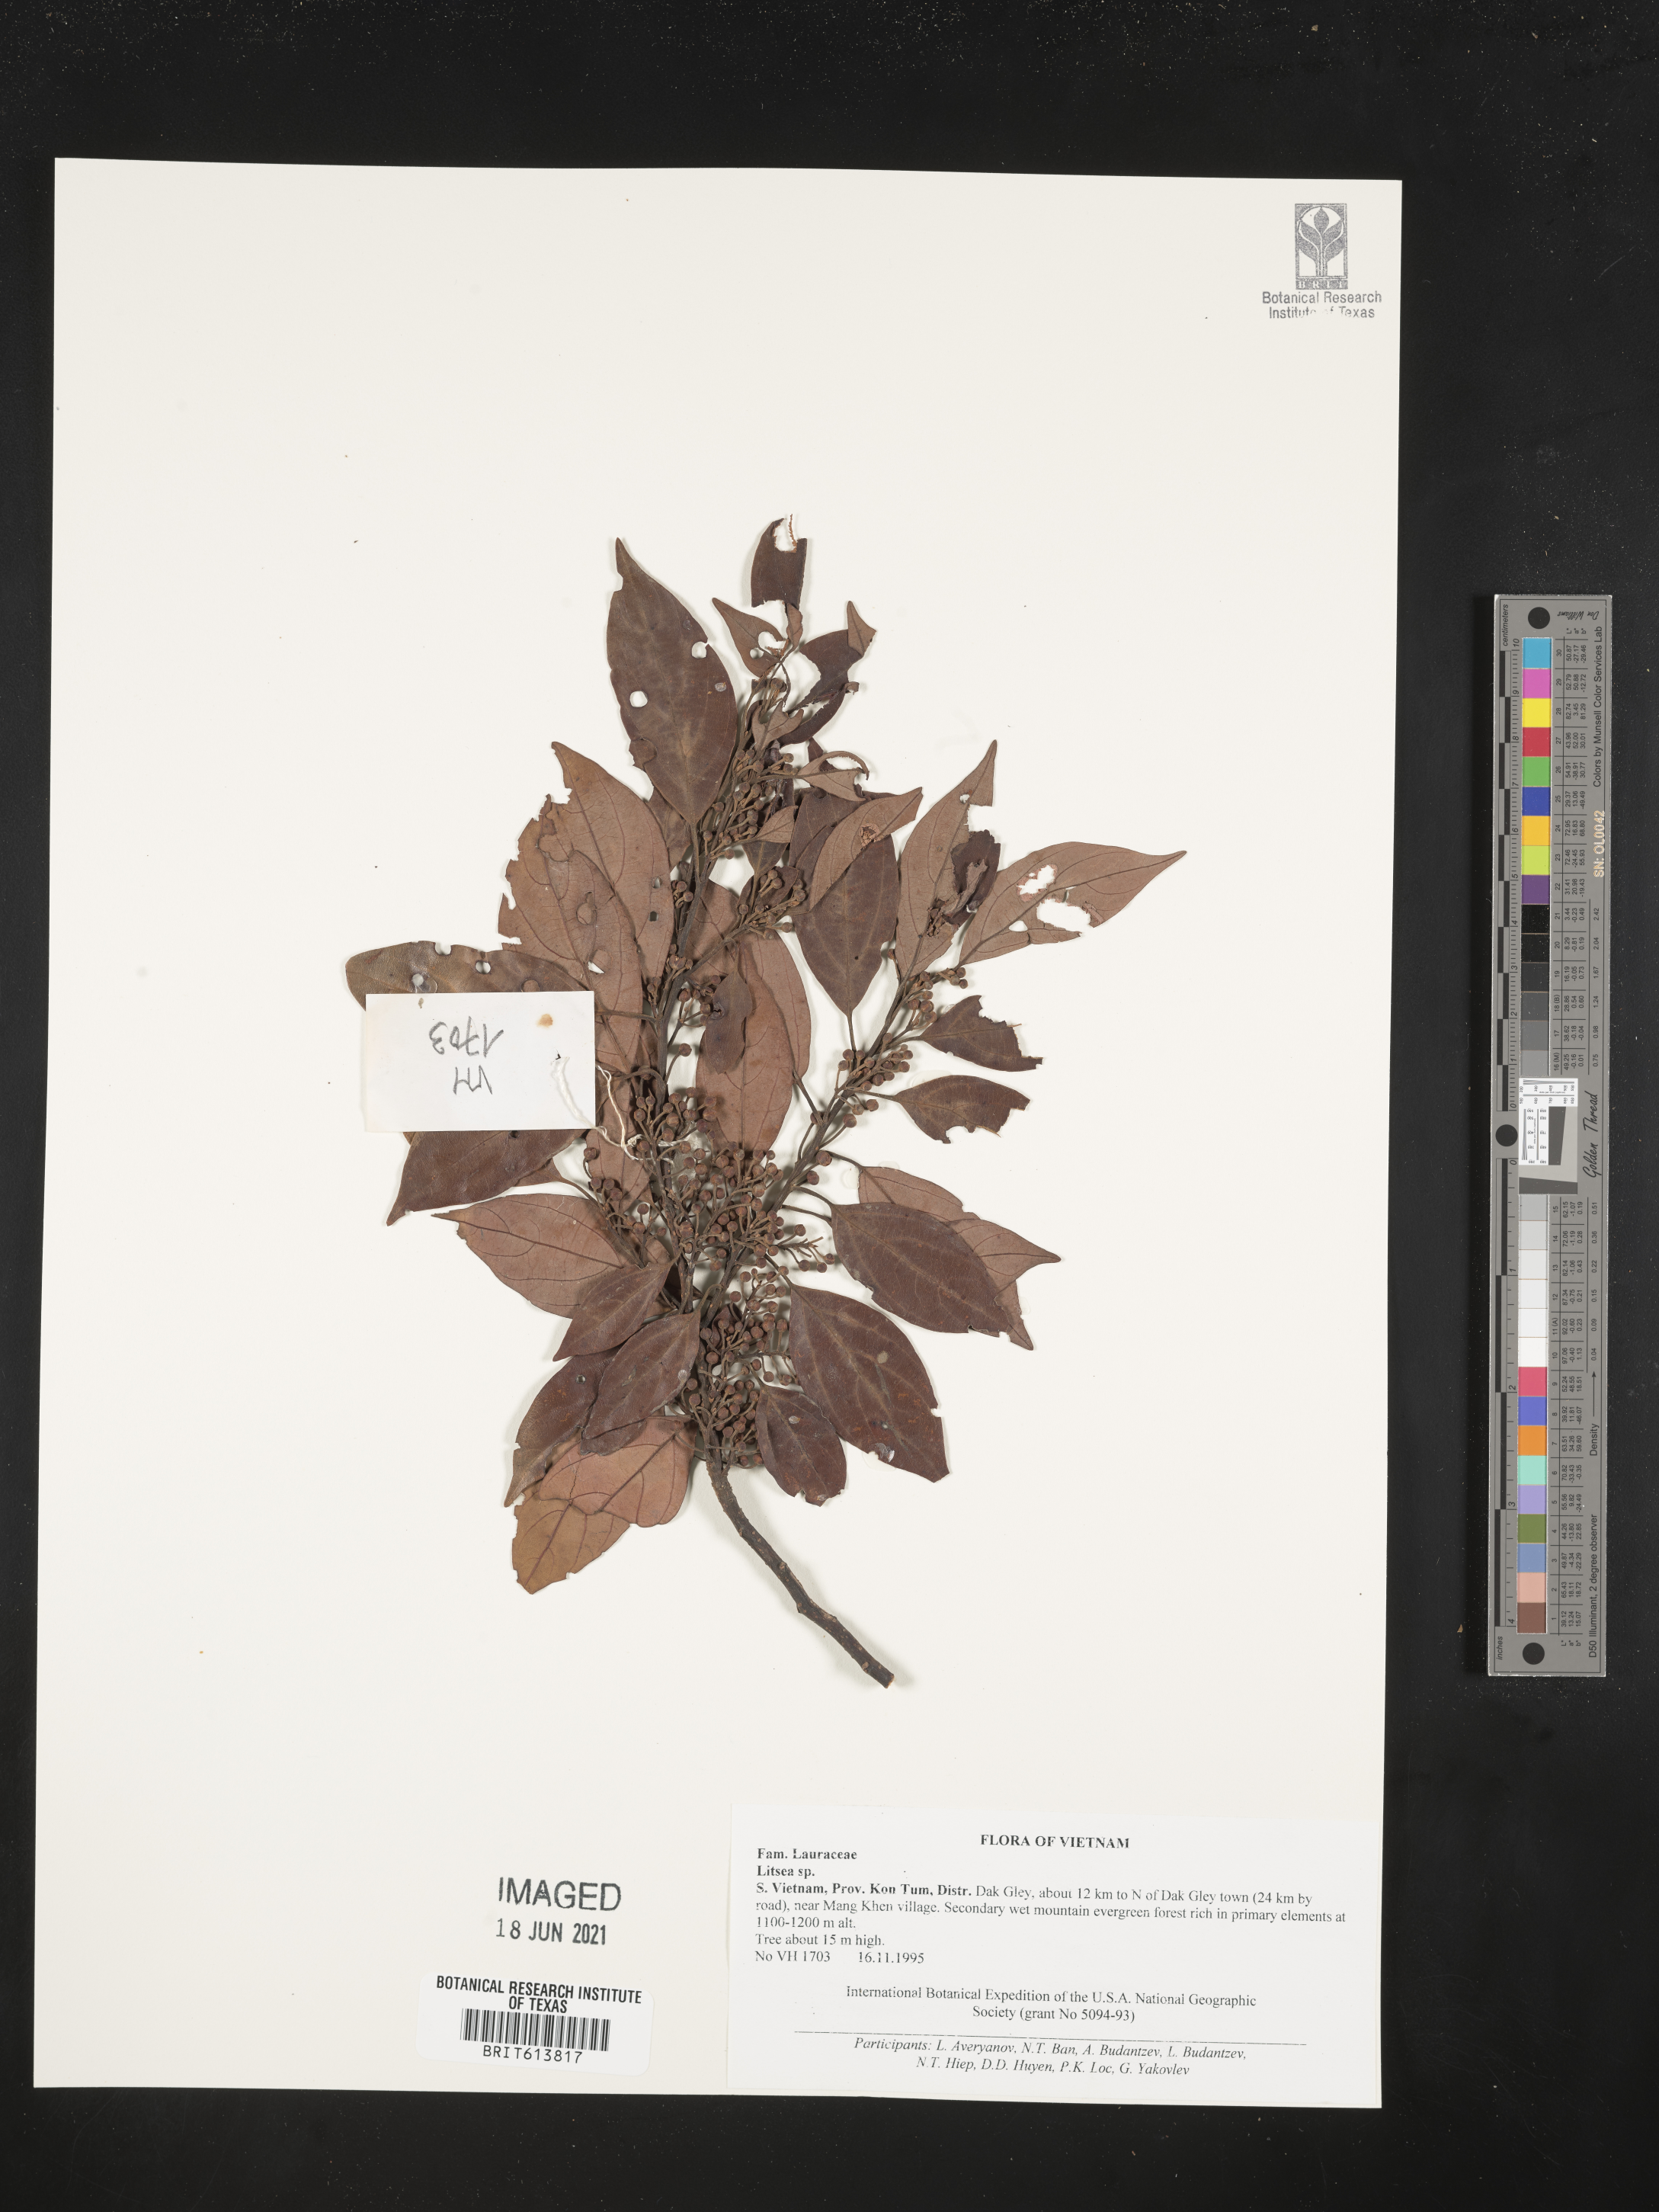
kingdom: Plantae
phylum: Tracheophyta
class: Magnoliopsida
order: Laurales
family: Lauraceae
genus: Litsea
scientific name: Litsea
